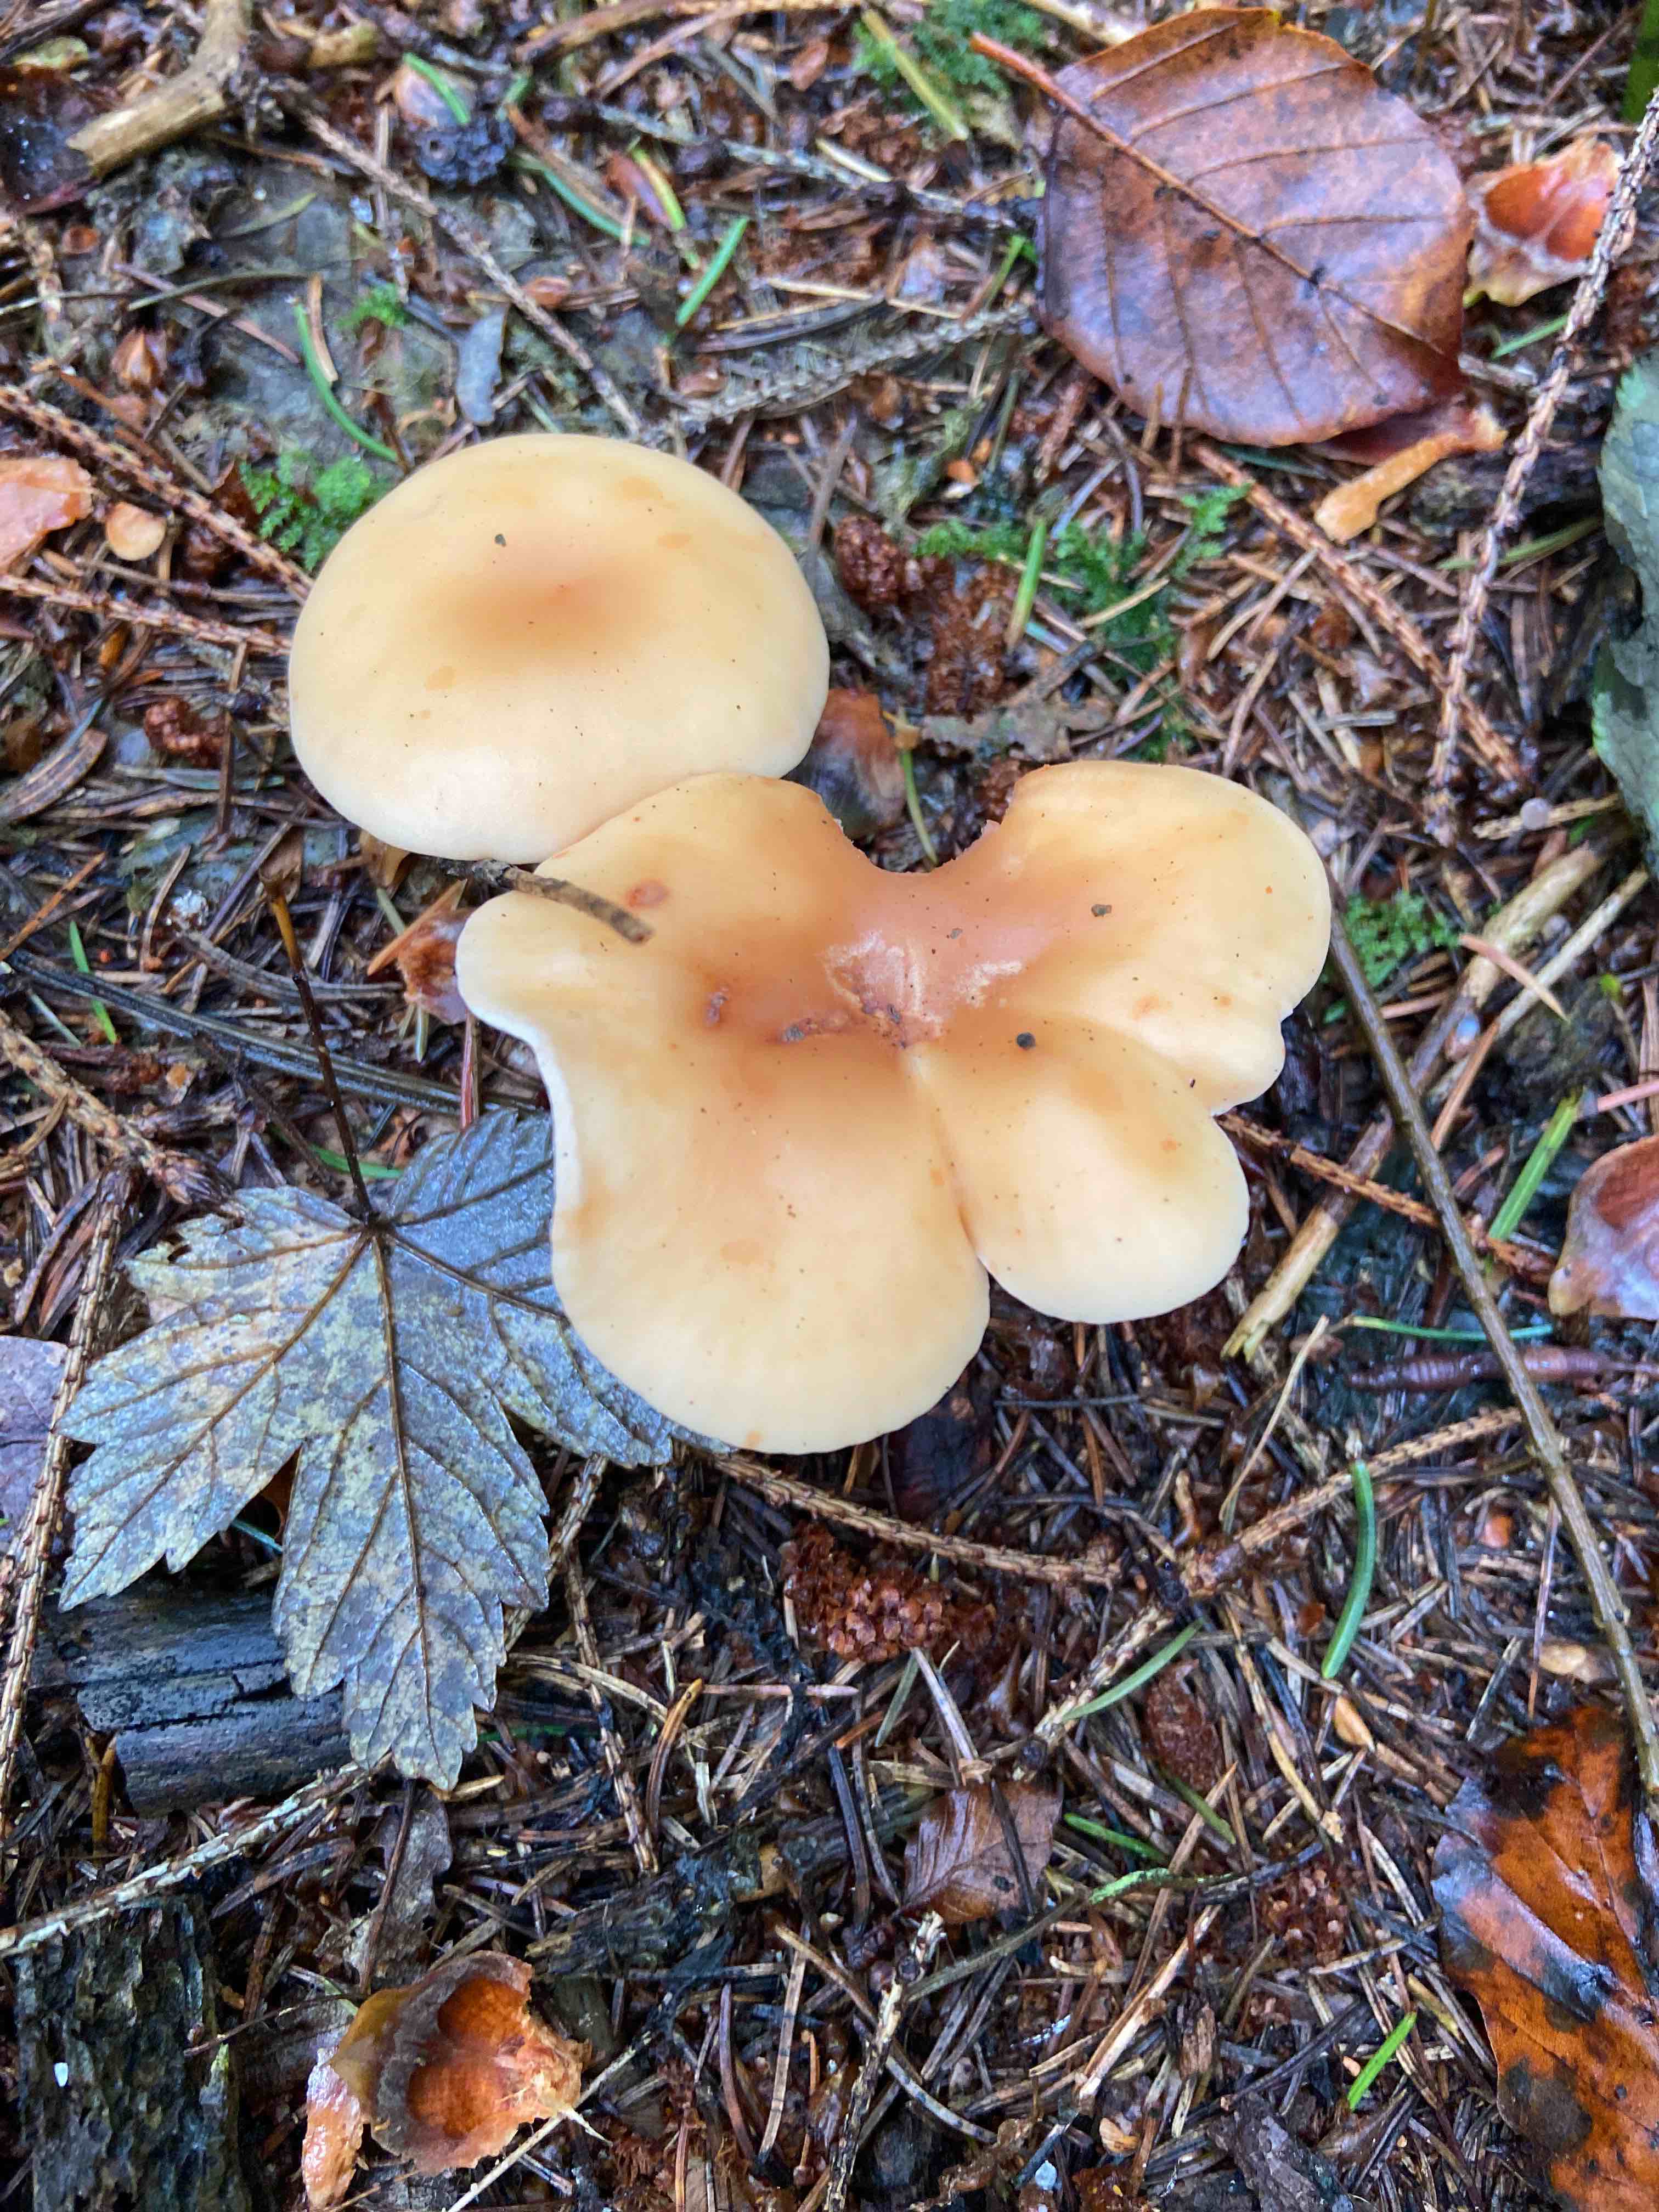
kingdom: Fungi
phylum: Basidiomycota
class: Agaricomycetes
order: Agaricales
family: Tricholomataceae
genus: Paralepista
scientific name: Paralepista flaccida
